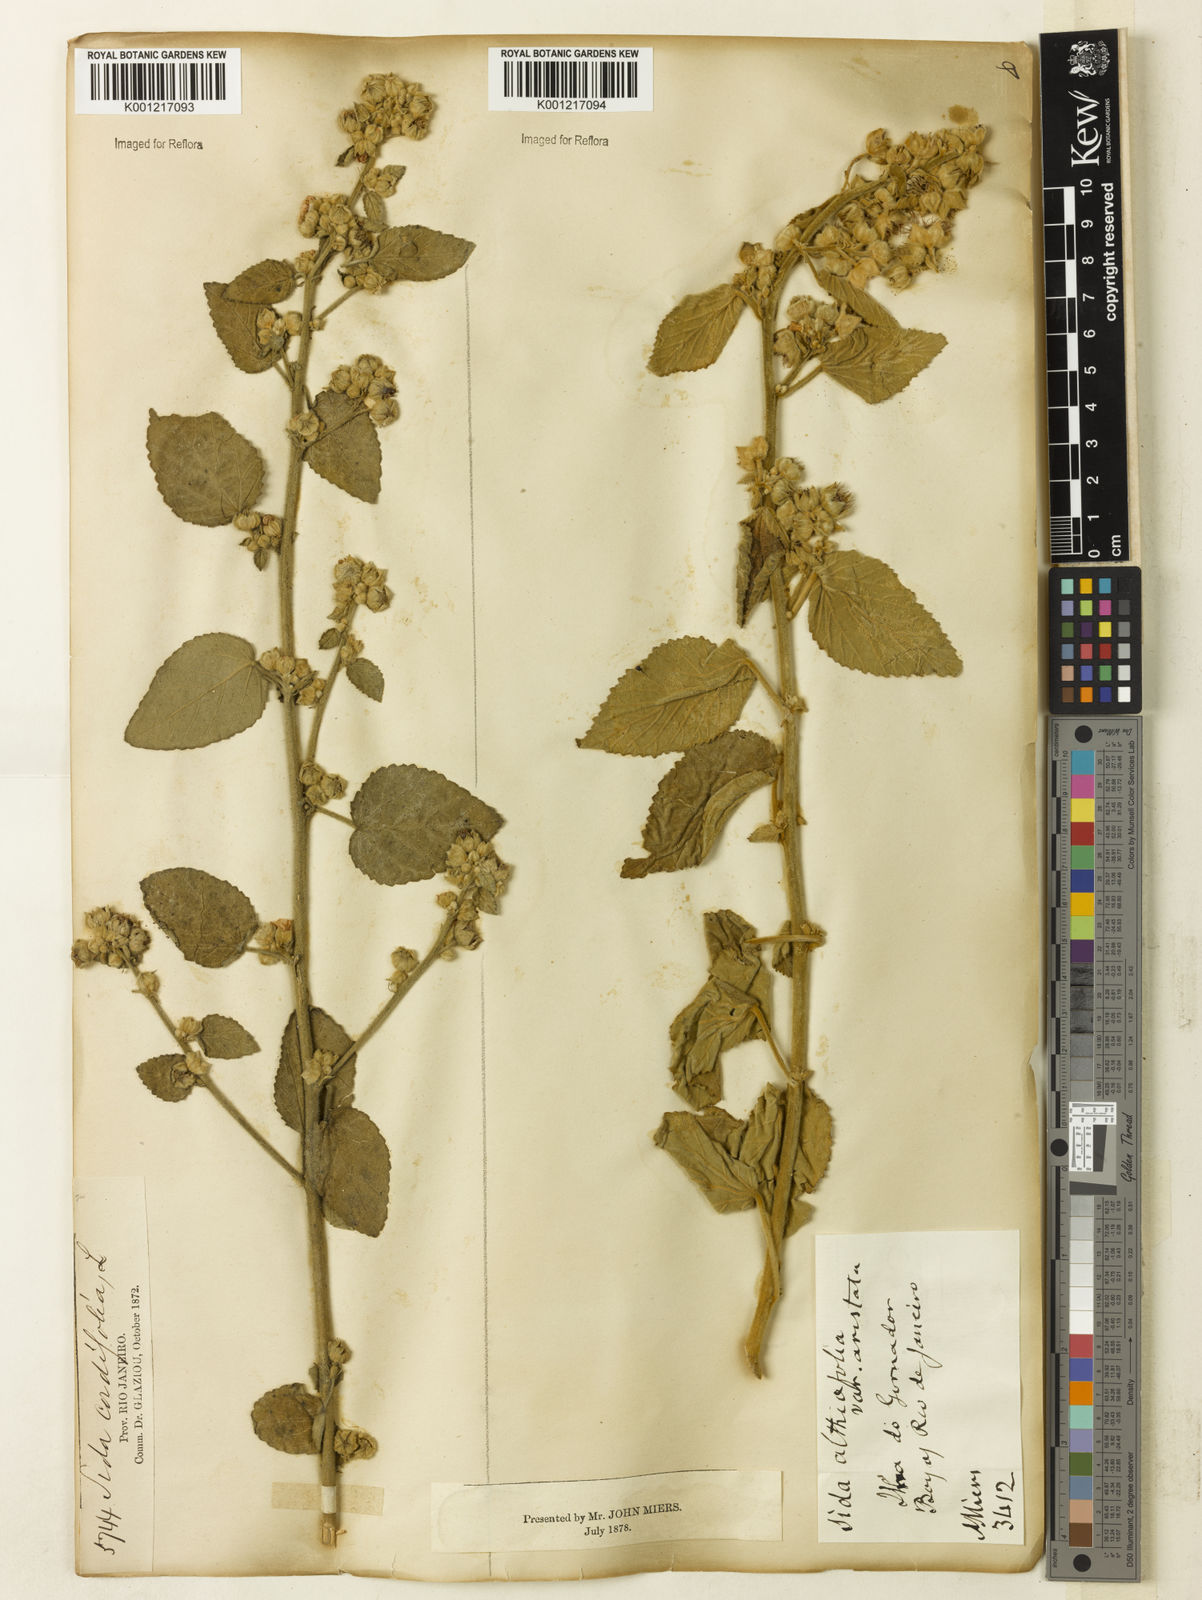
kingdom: Plantae
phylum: Tracheophyta
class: Magnoliopsida
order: Malvales
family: Malvaceae
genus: Sida
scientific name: Sida cordifolia
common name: Ilima
